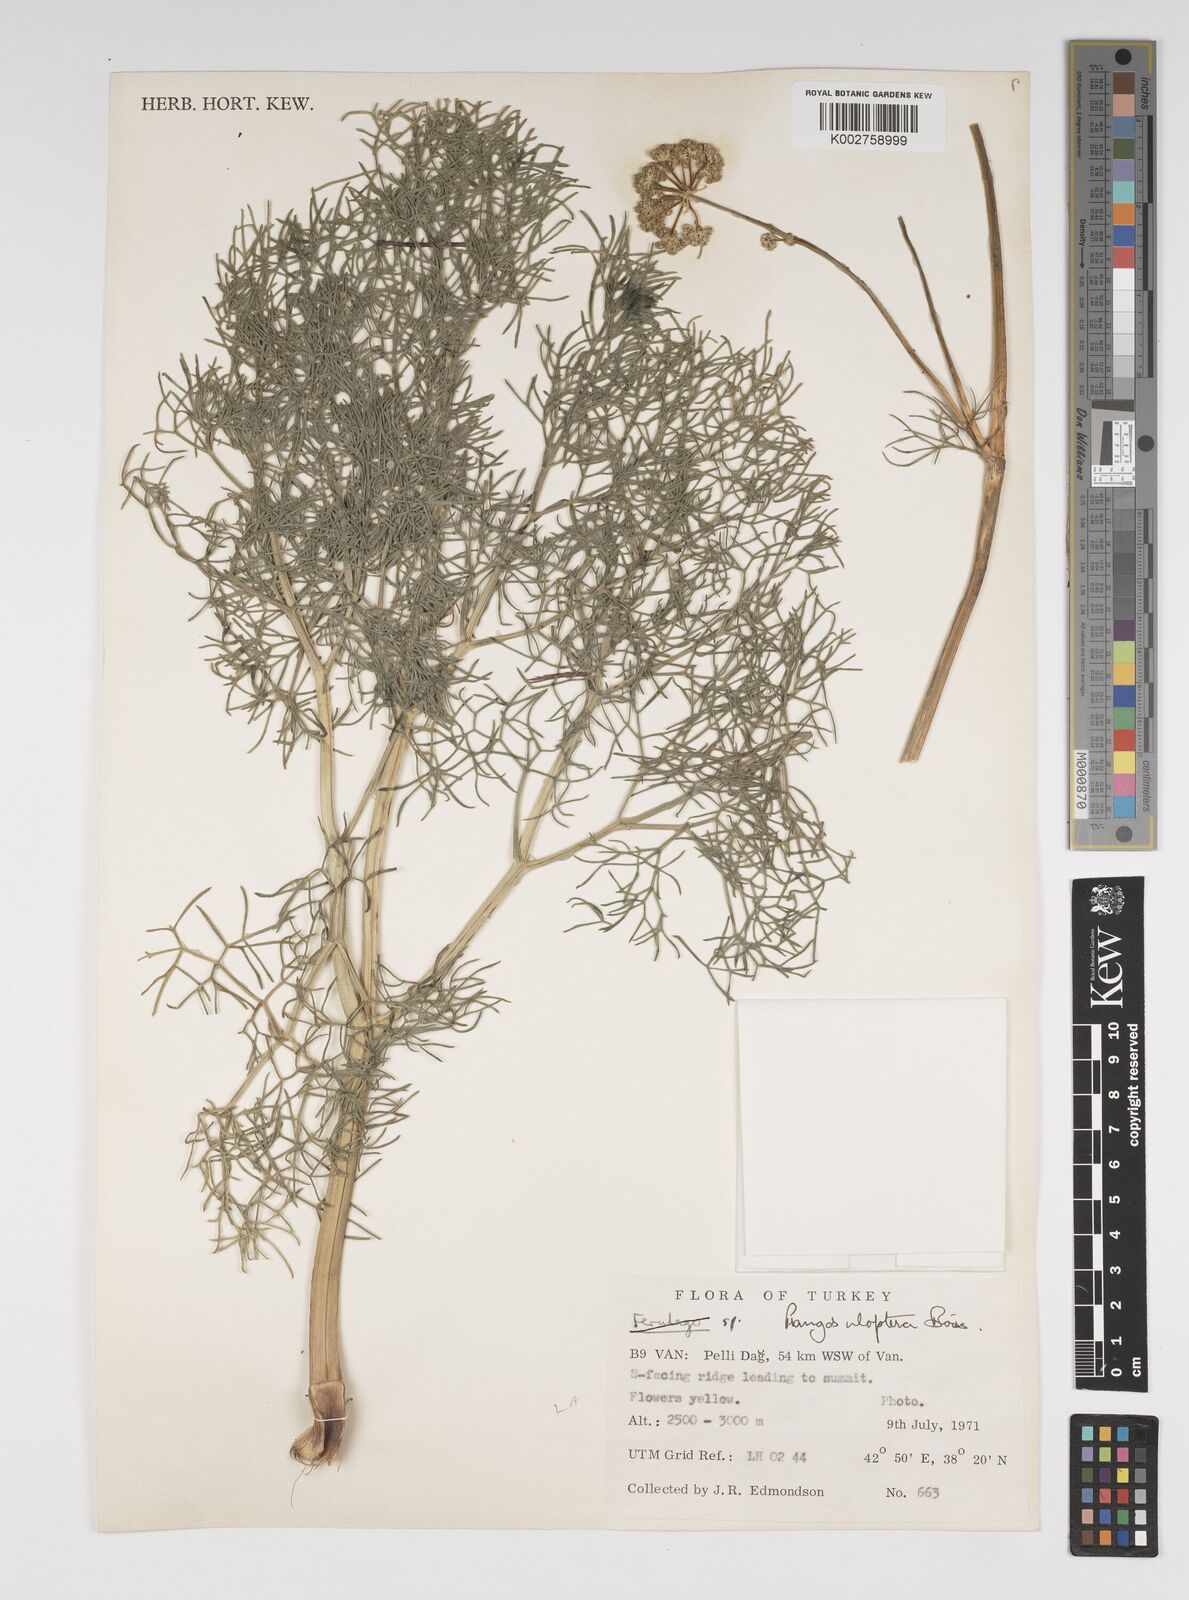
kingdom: Plantae
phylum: Tracheophyta
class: Magnoliopsida
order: Apiales
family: Apiaceae
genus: Prangos
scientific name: Prangos uloptera
